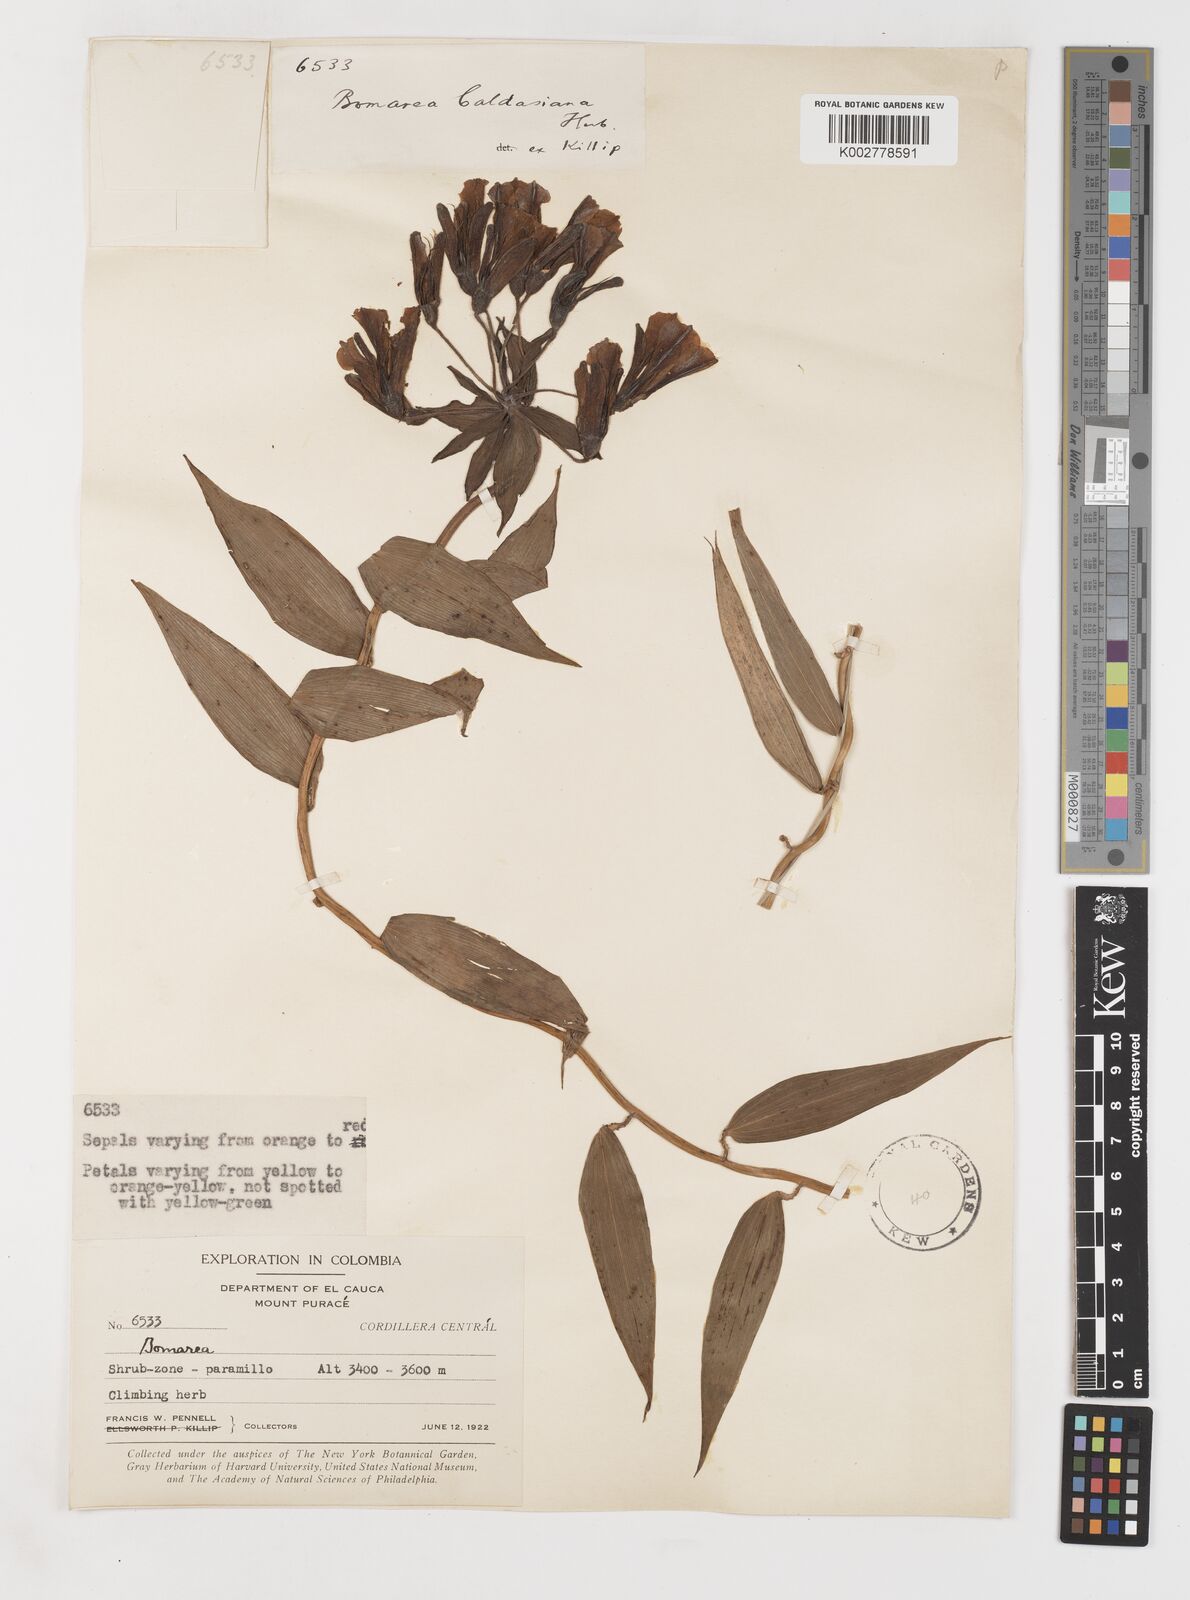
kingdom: Plantae
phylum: Tracheophyta
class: Liliopsida
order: Liliales
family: Alstroemeriaceae
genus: Bomarea
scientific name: Bomarea multiflora
